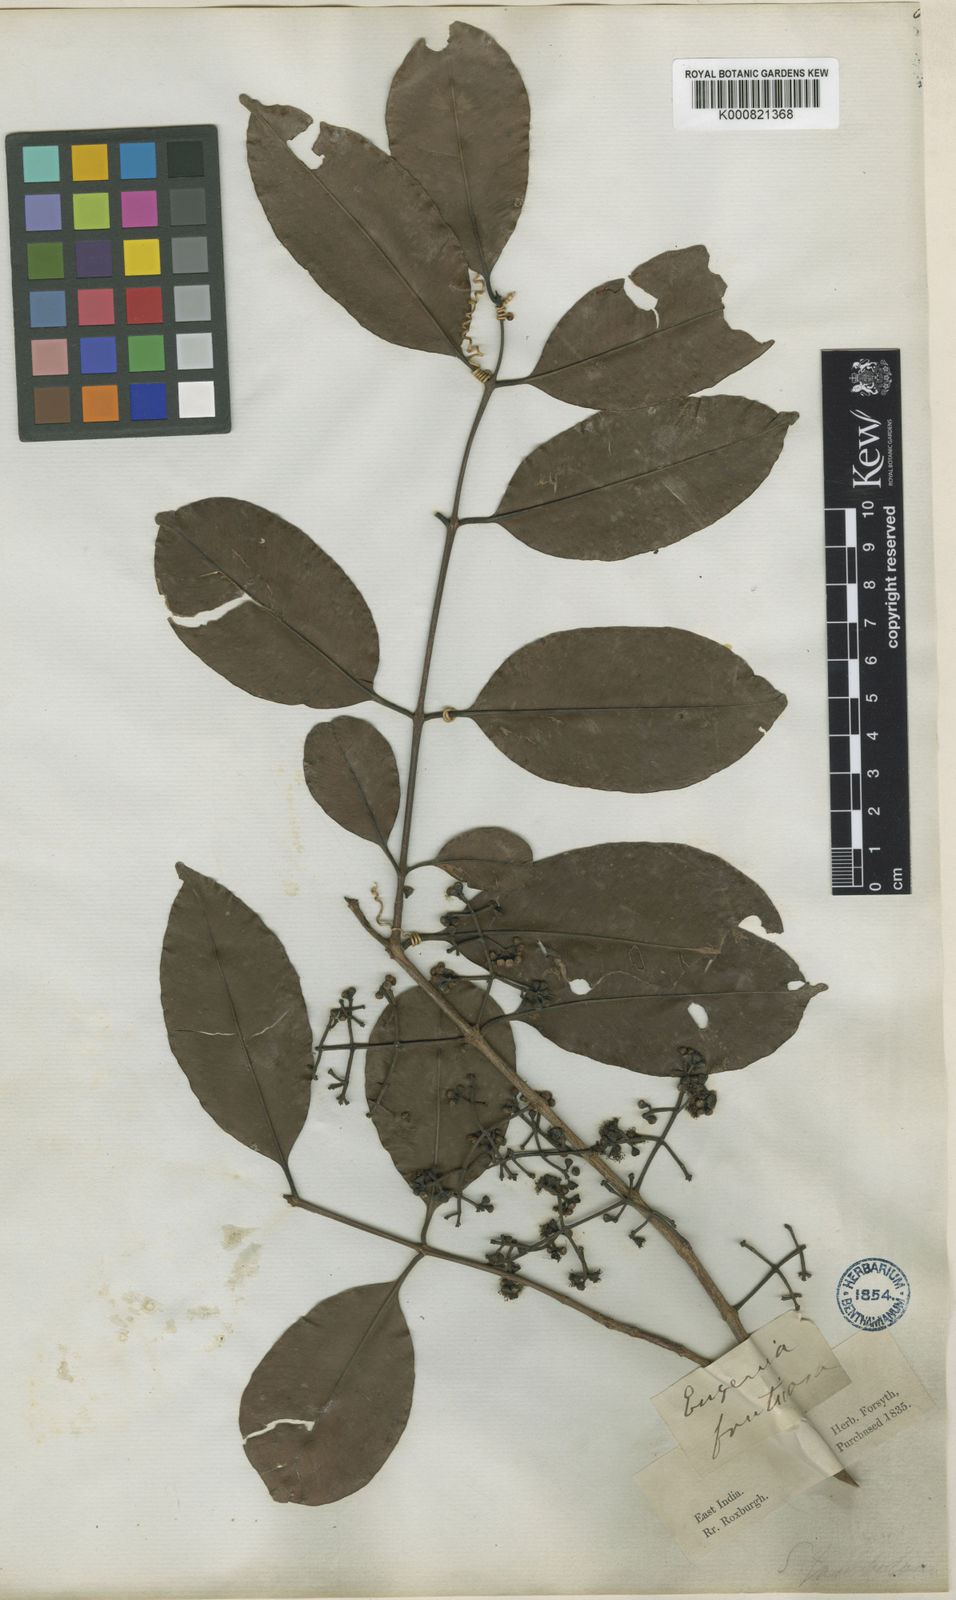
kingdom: Plantae
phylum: Tracheophyta
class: Magnoliopsida
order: Myrtales
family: Myrtaceae
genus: Syzygium
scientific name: Syzygium fruticosum
